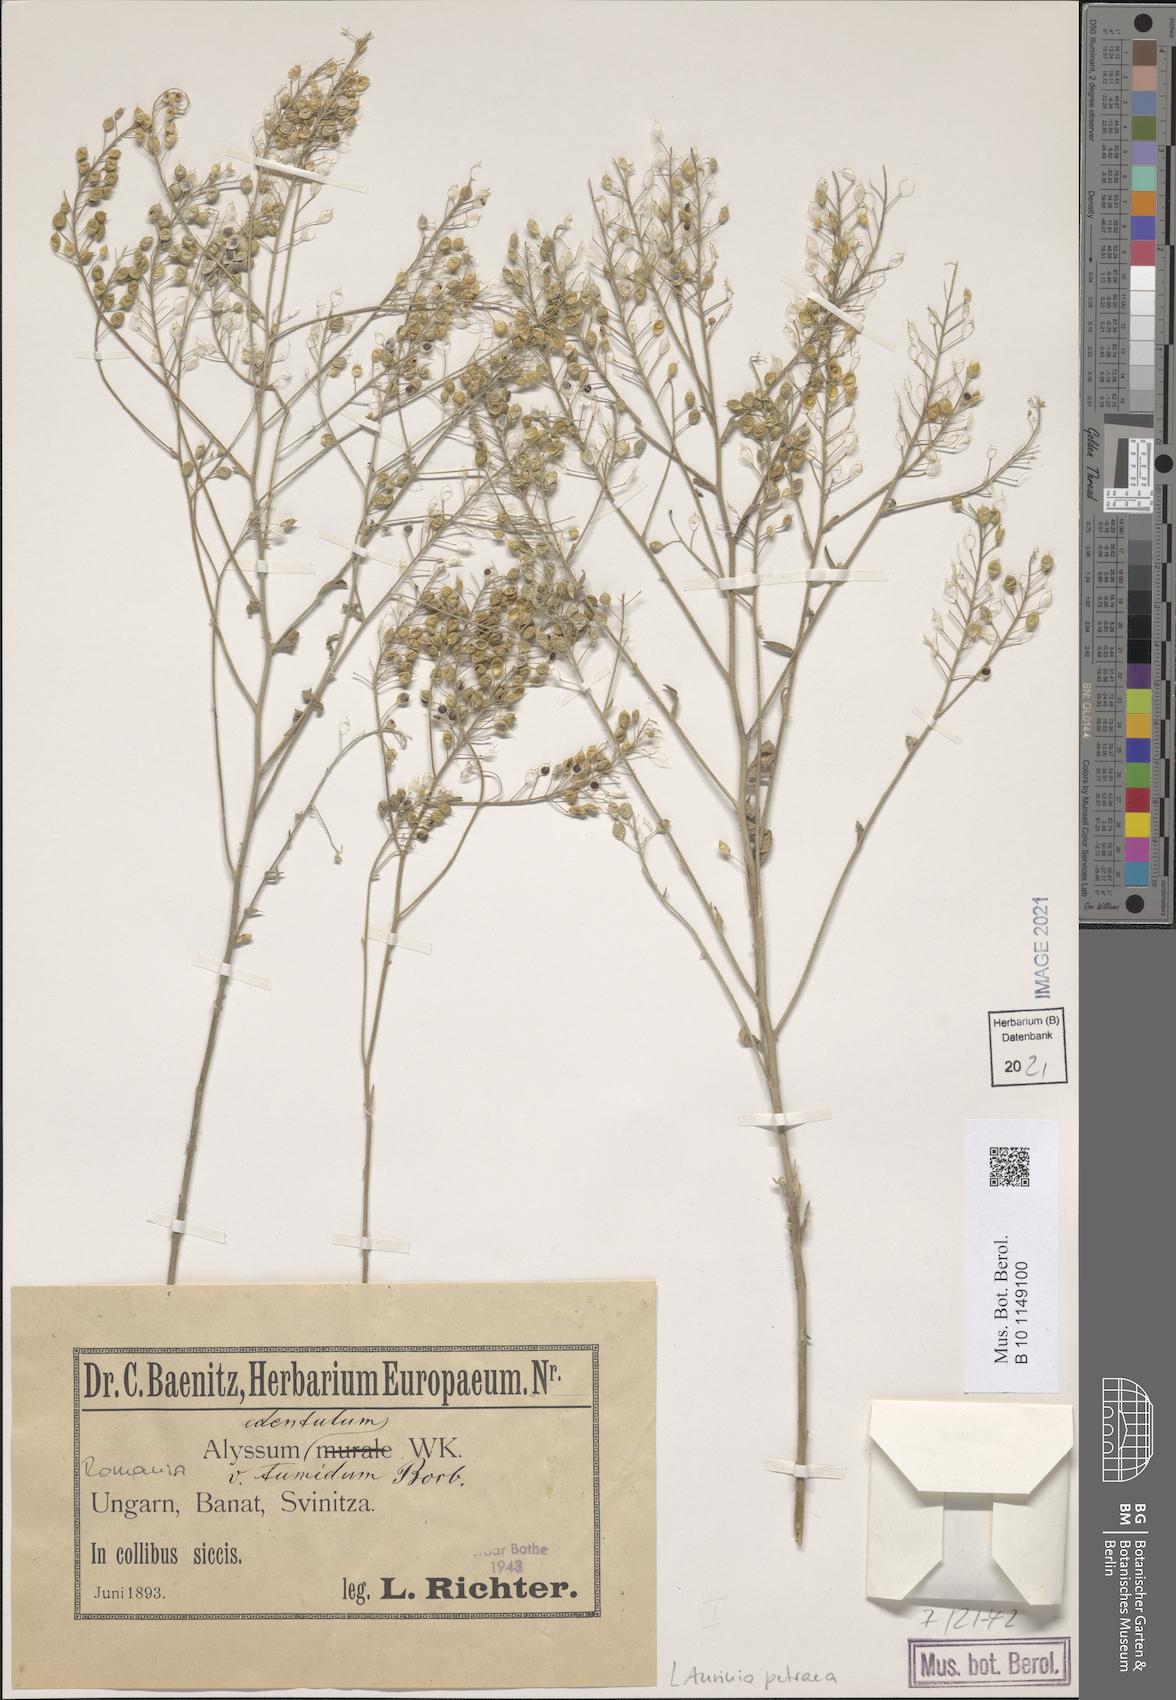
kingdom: Plantae
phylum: Tracheophyta
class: Magnoliopsida
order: Brassicales
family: Brassicaceae
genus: Aurinia
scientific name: Aurinia petraea
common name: Goldentuft
